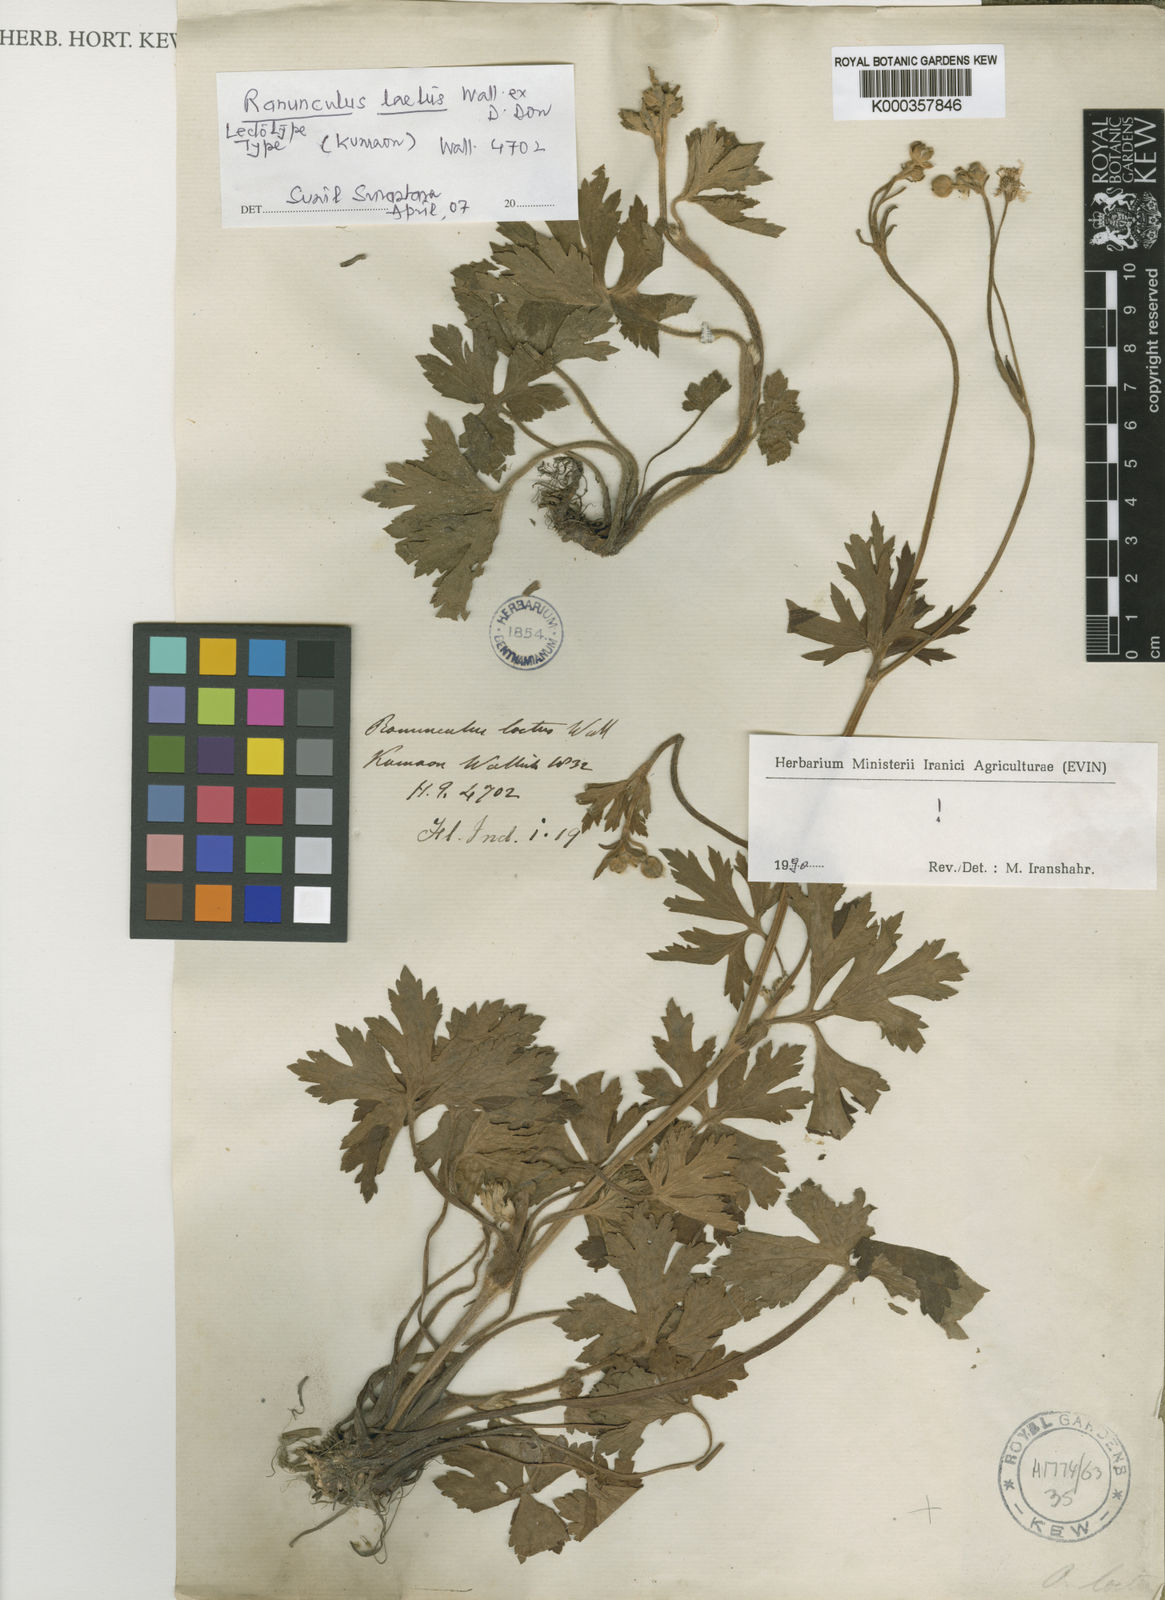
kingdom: Plantae
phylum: Tracheophyta
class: Magnoliopsida
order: Ranunculales
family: Ranunculaceae
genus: Ranunculus
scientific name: Ranunculus
